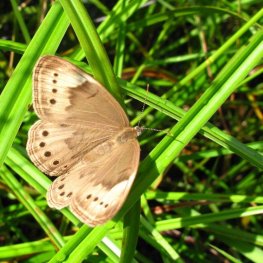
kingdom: Animalia
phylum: Arthropoda
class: Insecta
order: Lepidoptera
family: Nymphalidae
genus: Lethe
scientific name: Lethe eurydice
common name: Eyed Brown
